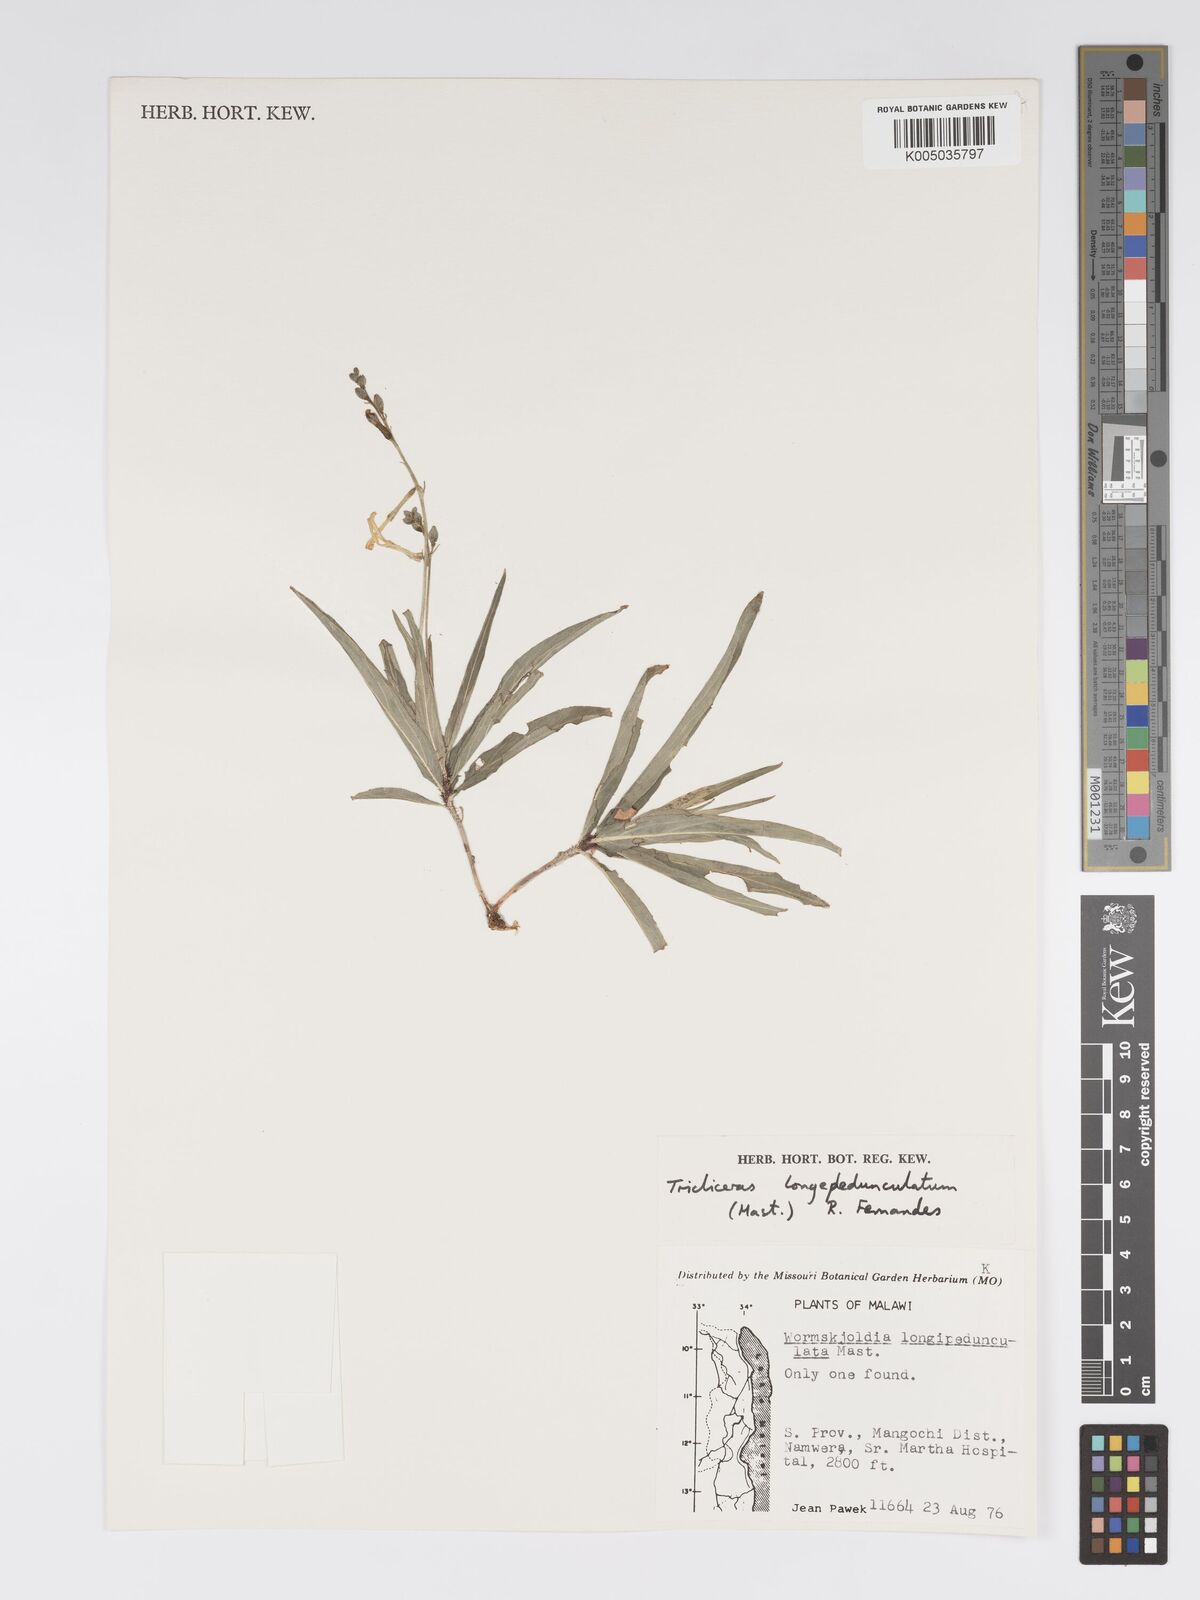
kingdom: Plantae
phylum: Tracheophyta
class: Magnoliopsida
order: Malpighiales
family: Turneraceae
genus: Tricliceras
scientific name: Tricliceras longepedunculatum
